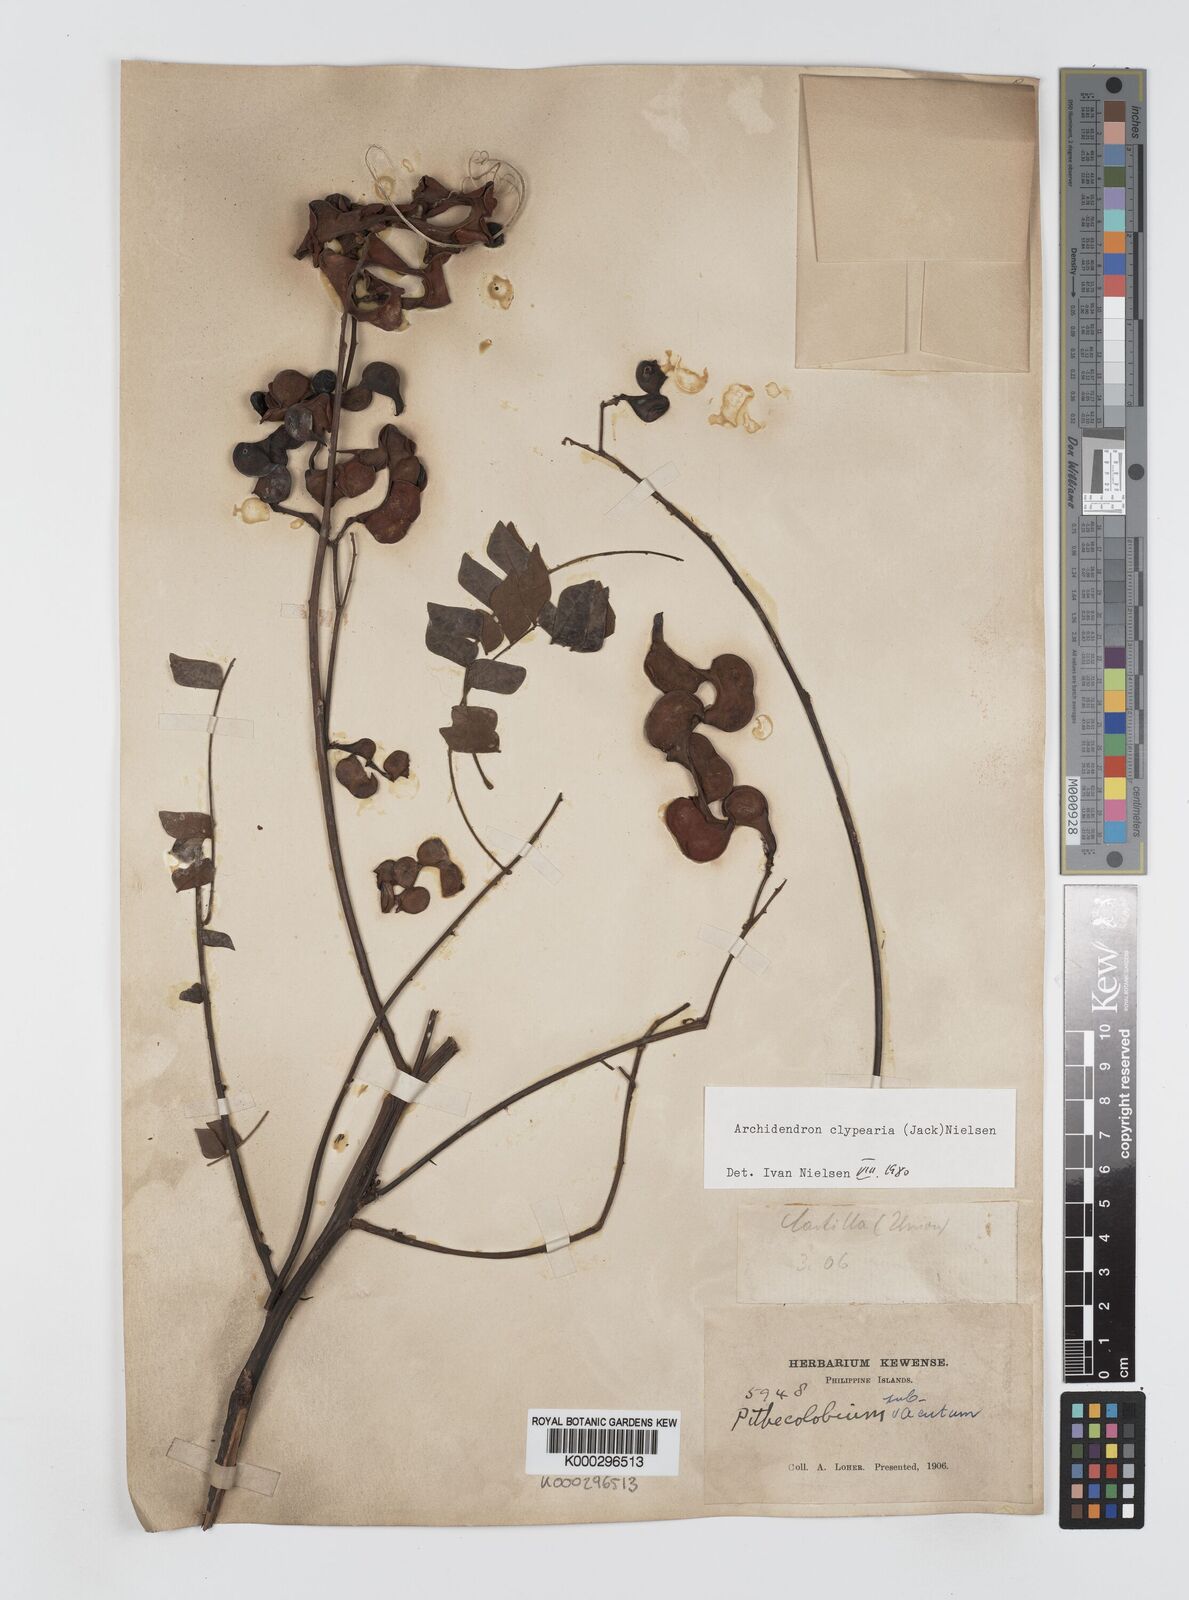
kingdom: Plantae
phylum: Tracheophyta
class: Magnoliopsida
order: Fabales
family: Fabaceae
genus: Archidendron
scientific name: Archidendron clypearia
